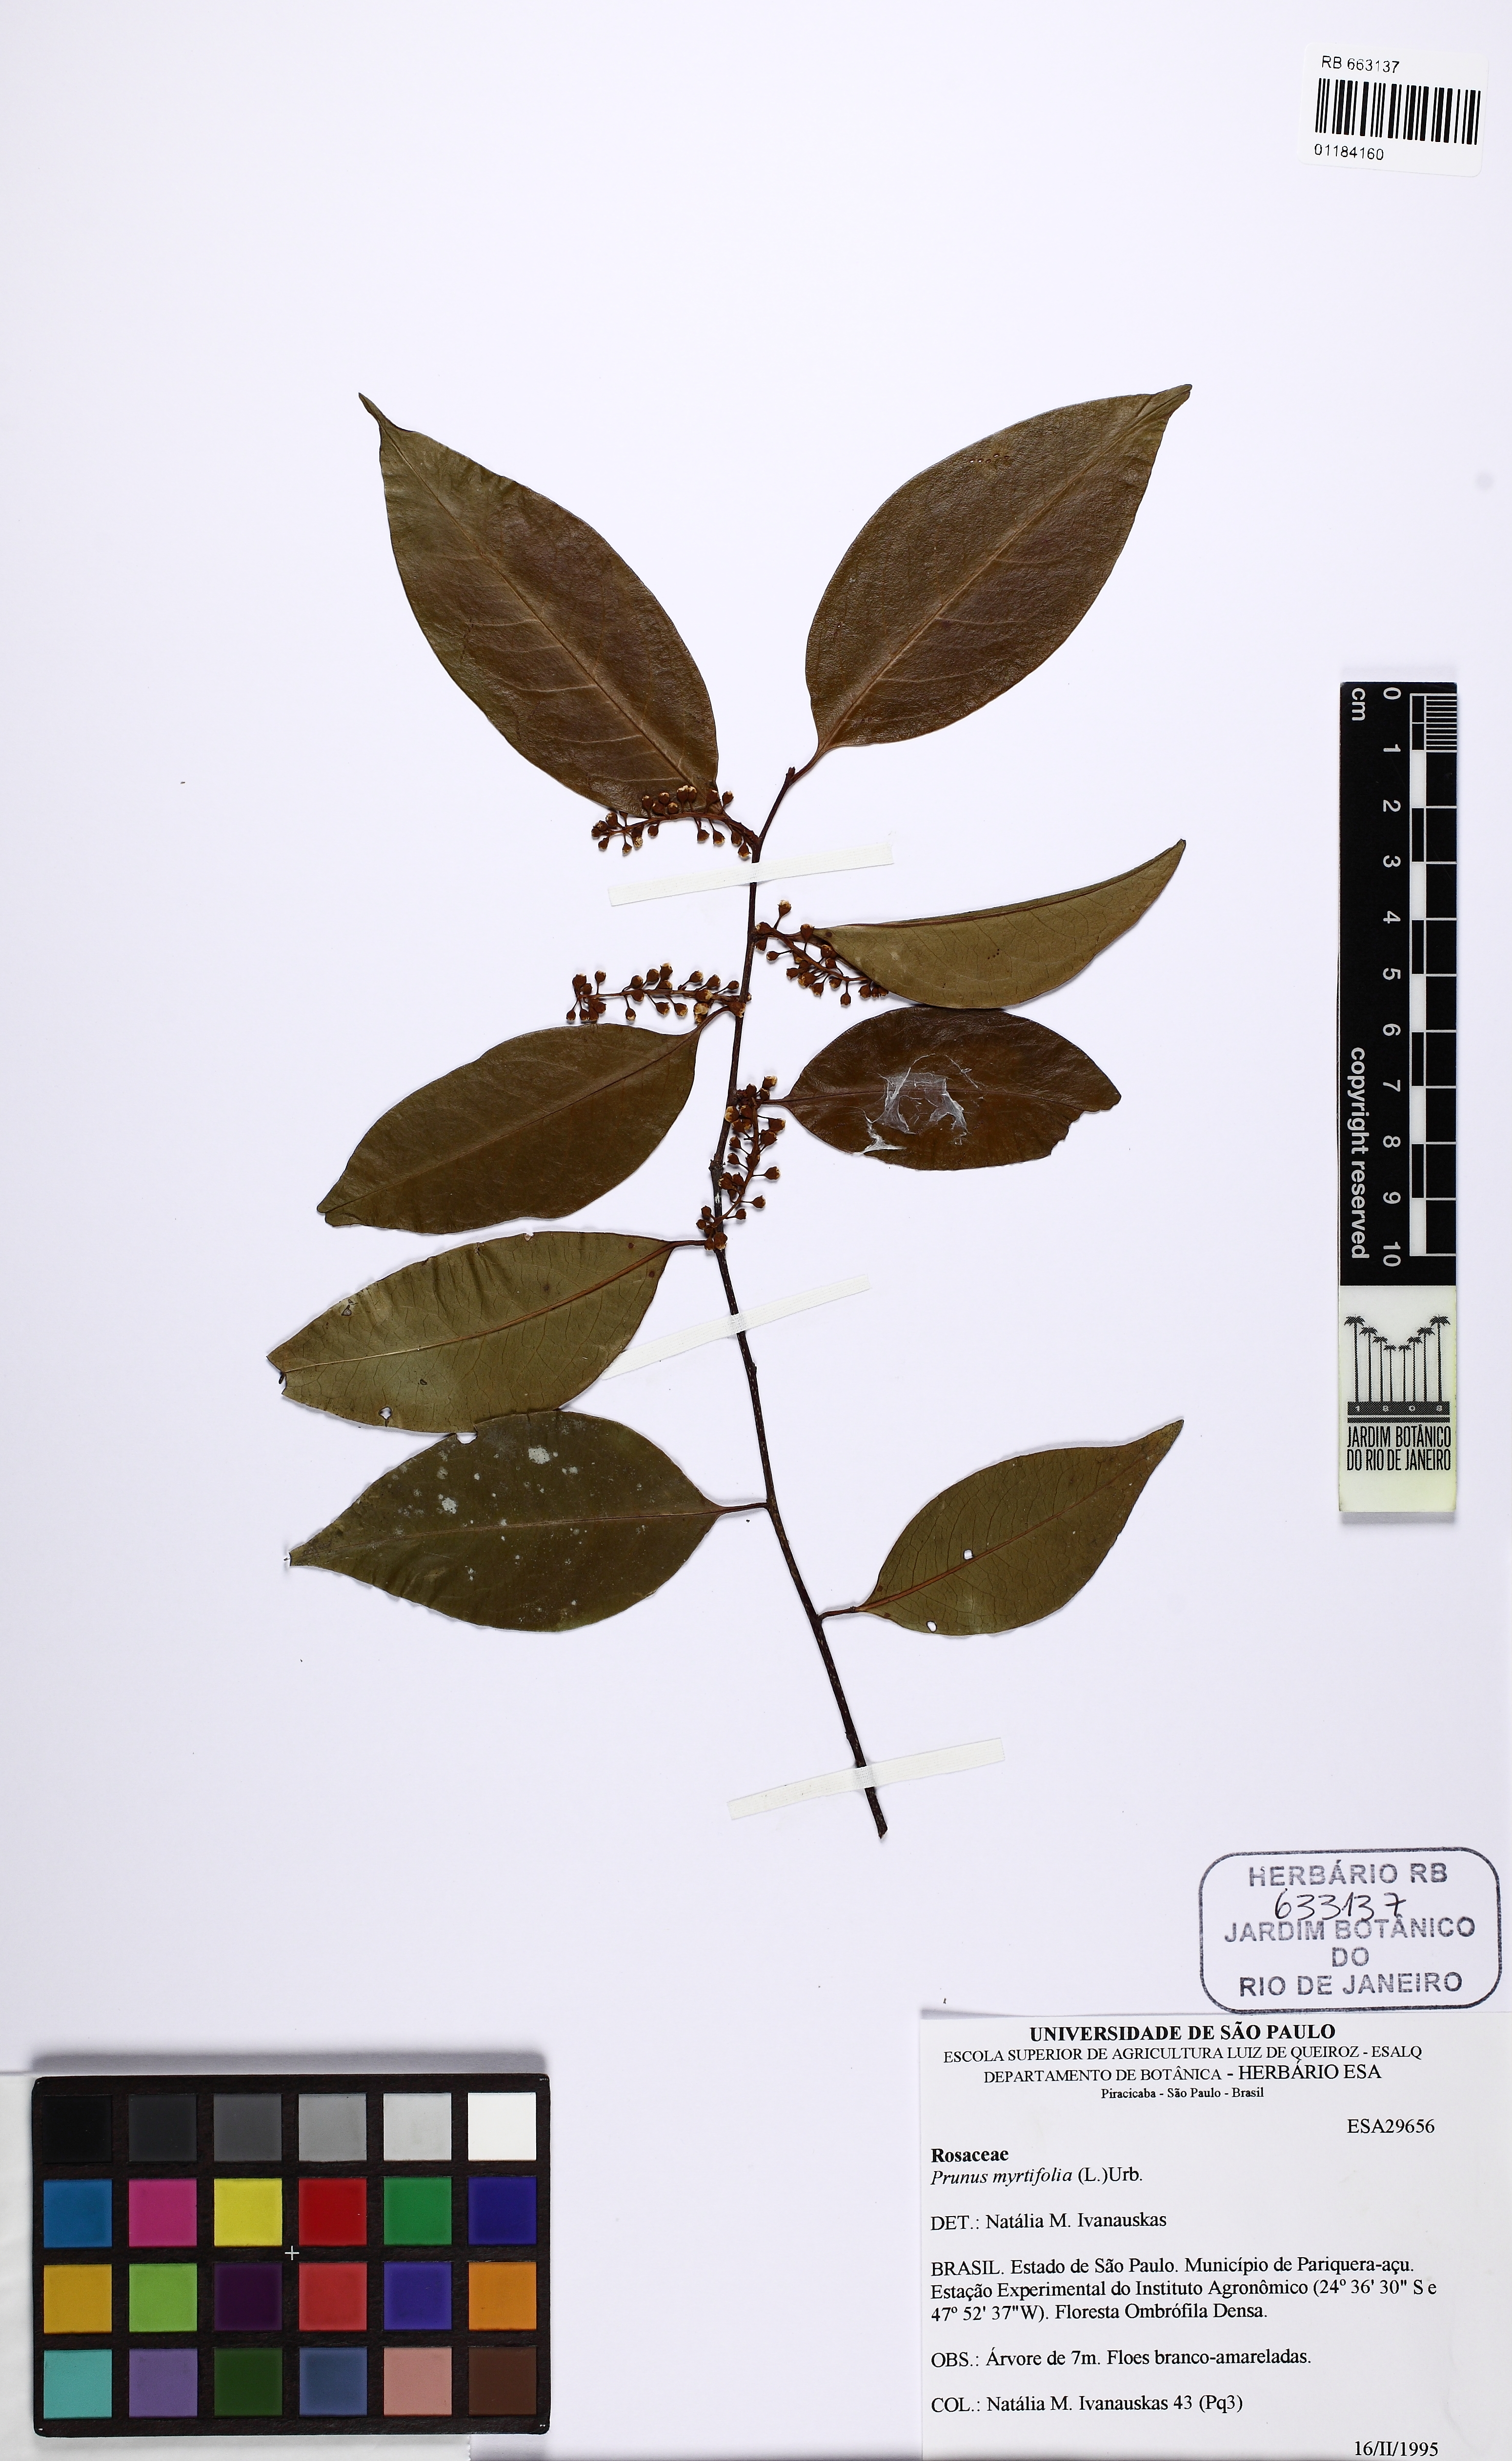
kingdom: Plantae
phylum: Tracheophyta
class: Magnoliopsida
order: Rosales
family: Rosaceae
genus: Prunus
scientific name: Prunus myrtifolia
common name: West indies cherry
